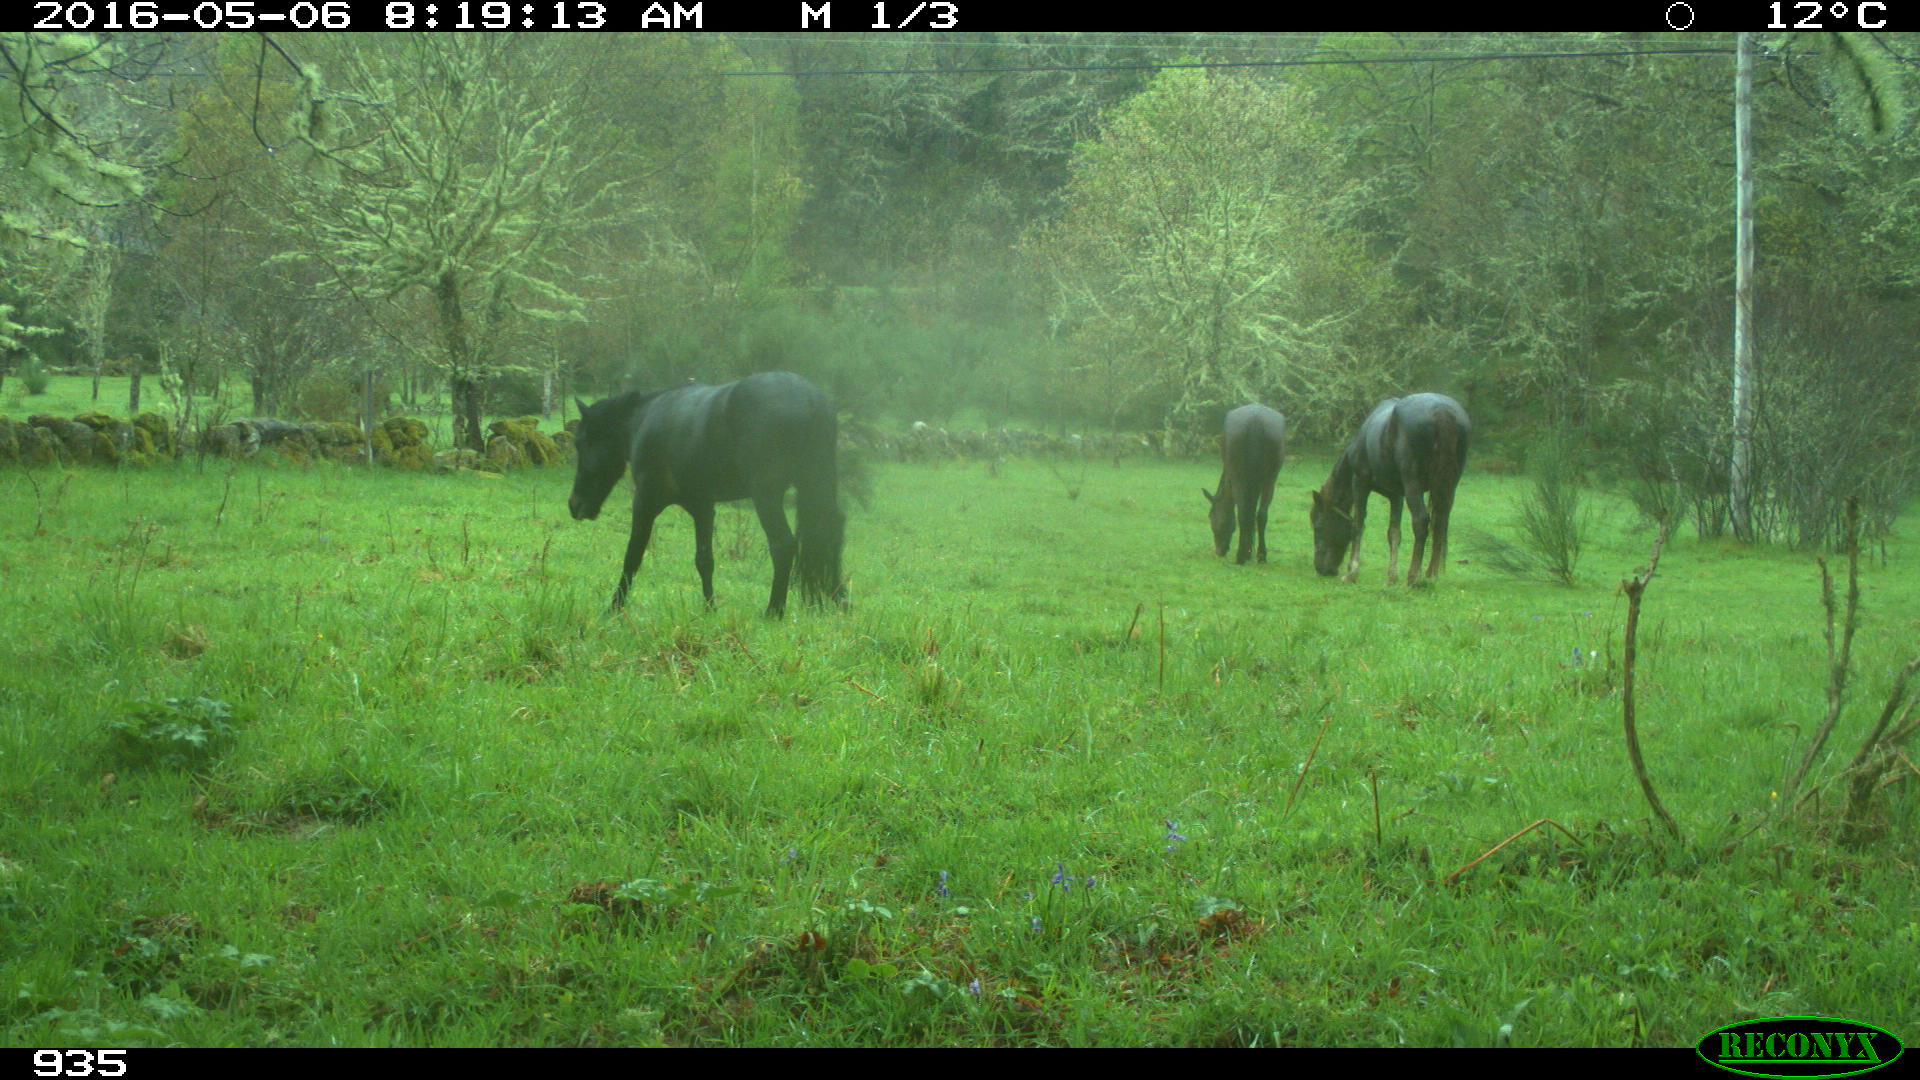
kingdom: Animalia
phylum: Chordata
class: Mammalia
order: Perissodactyla
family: Equidae
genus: Equus
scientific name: Equus caballus
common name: Horse
